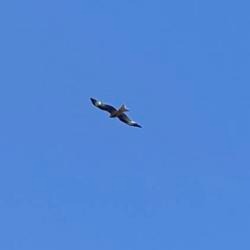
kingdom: Animalia
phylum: Chordata
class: Aves
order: Accipitriformes
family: Accipitridae
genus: Milvus
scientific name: Milvus milvus
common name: Rød glente
